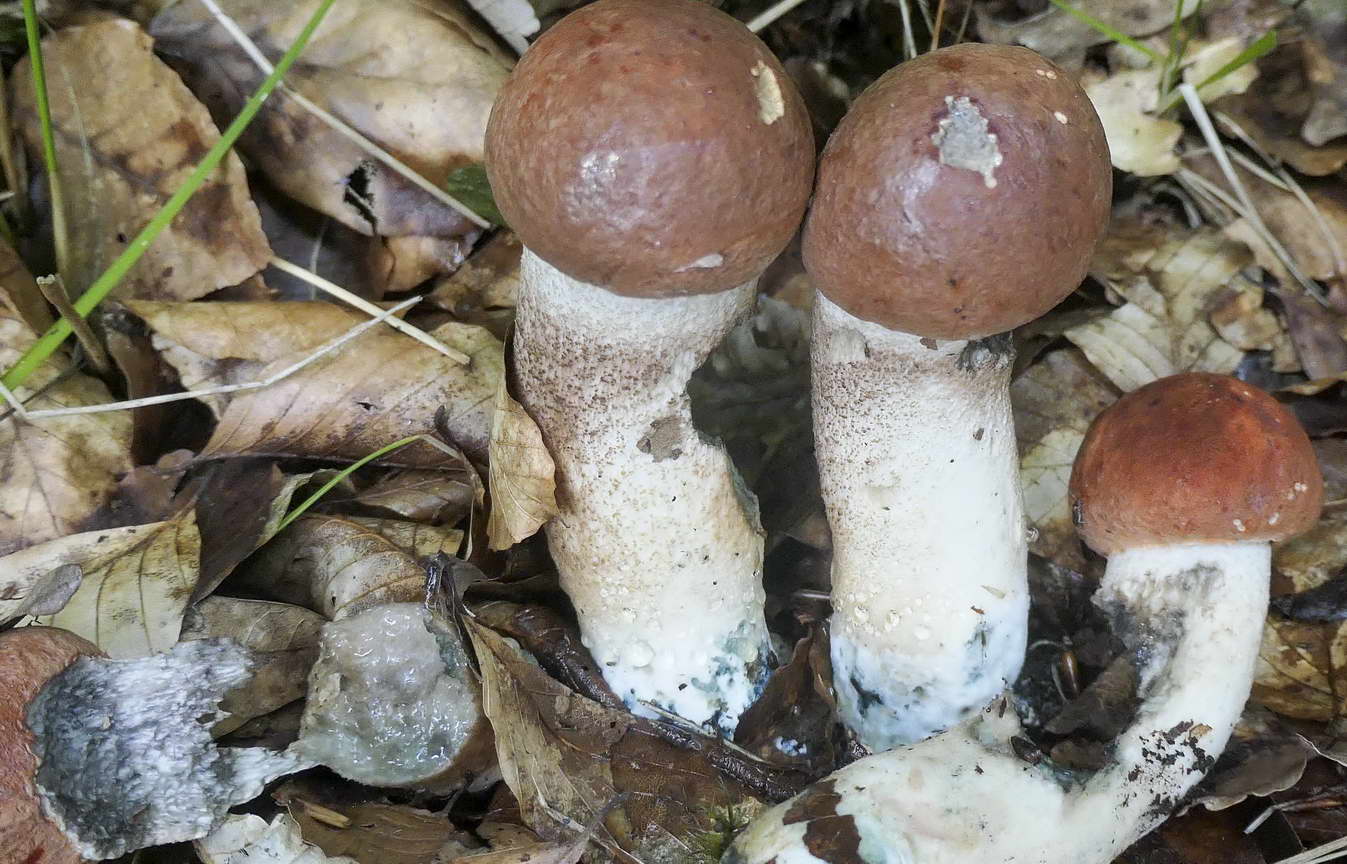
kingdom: Fungi
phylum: Basidiomycota
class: Agaricomycetes
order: Boletales
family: Boletaceae
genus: Leccinum
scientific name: Leccinum aurantiacum
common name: rustrød skælrørhat
